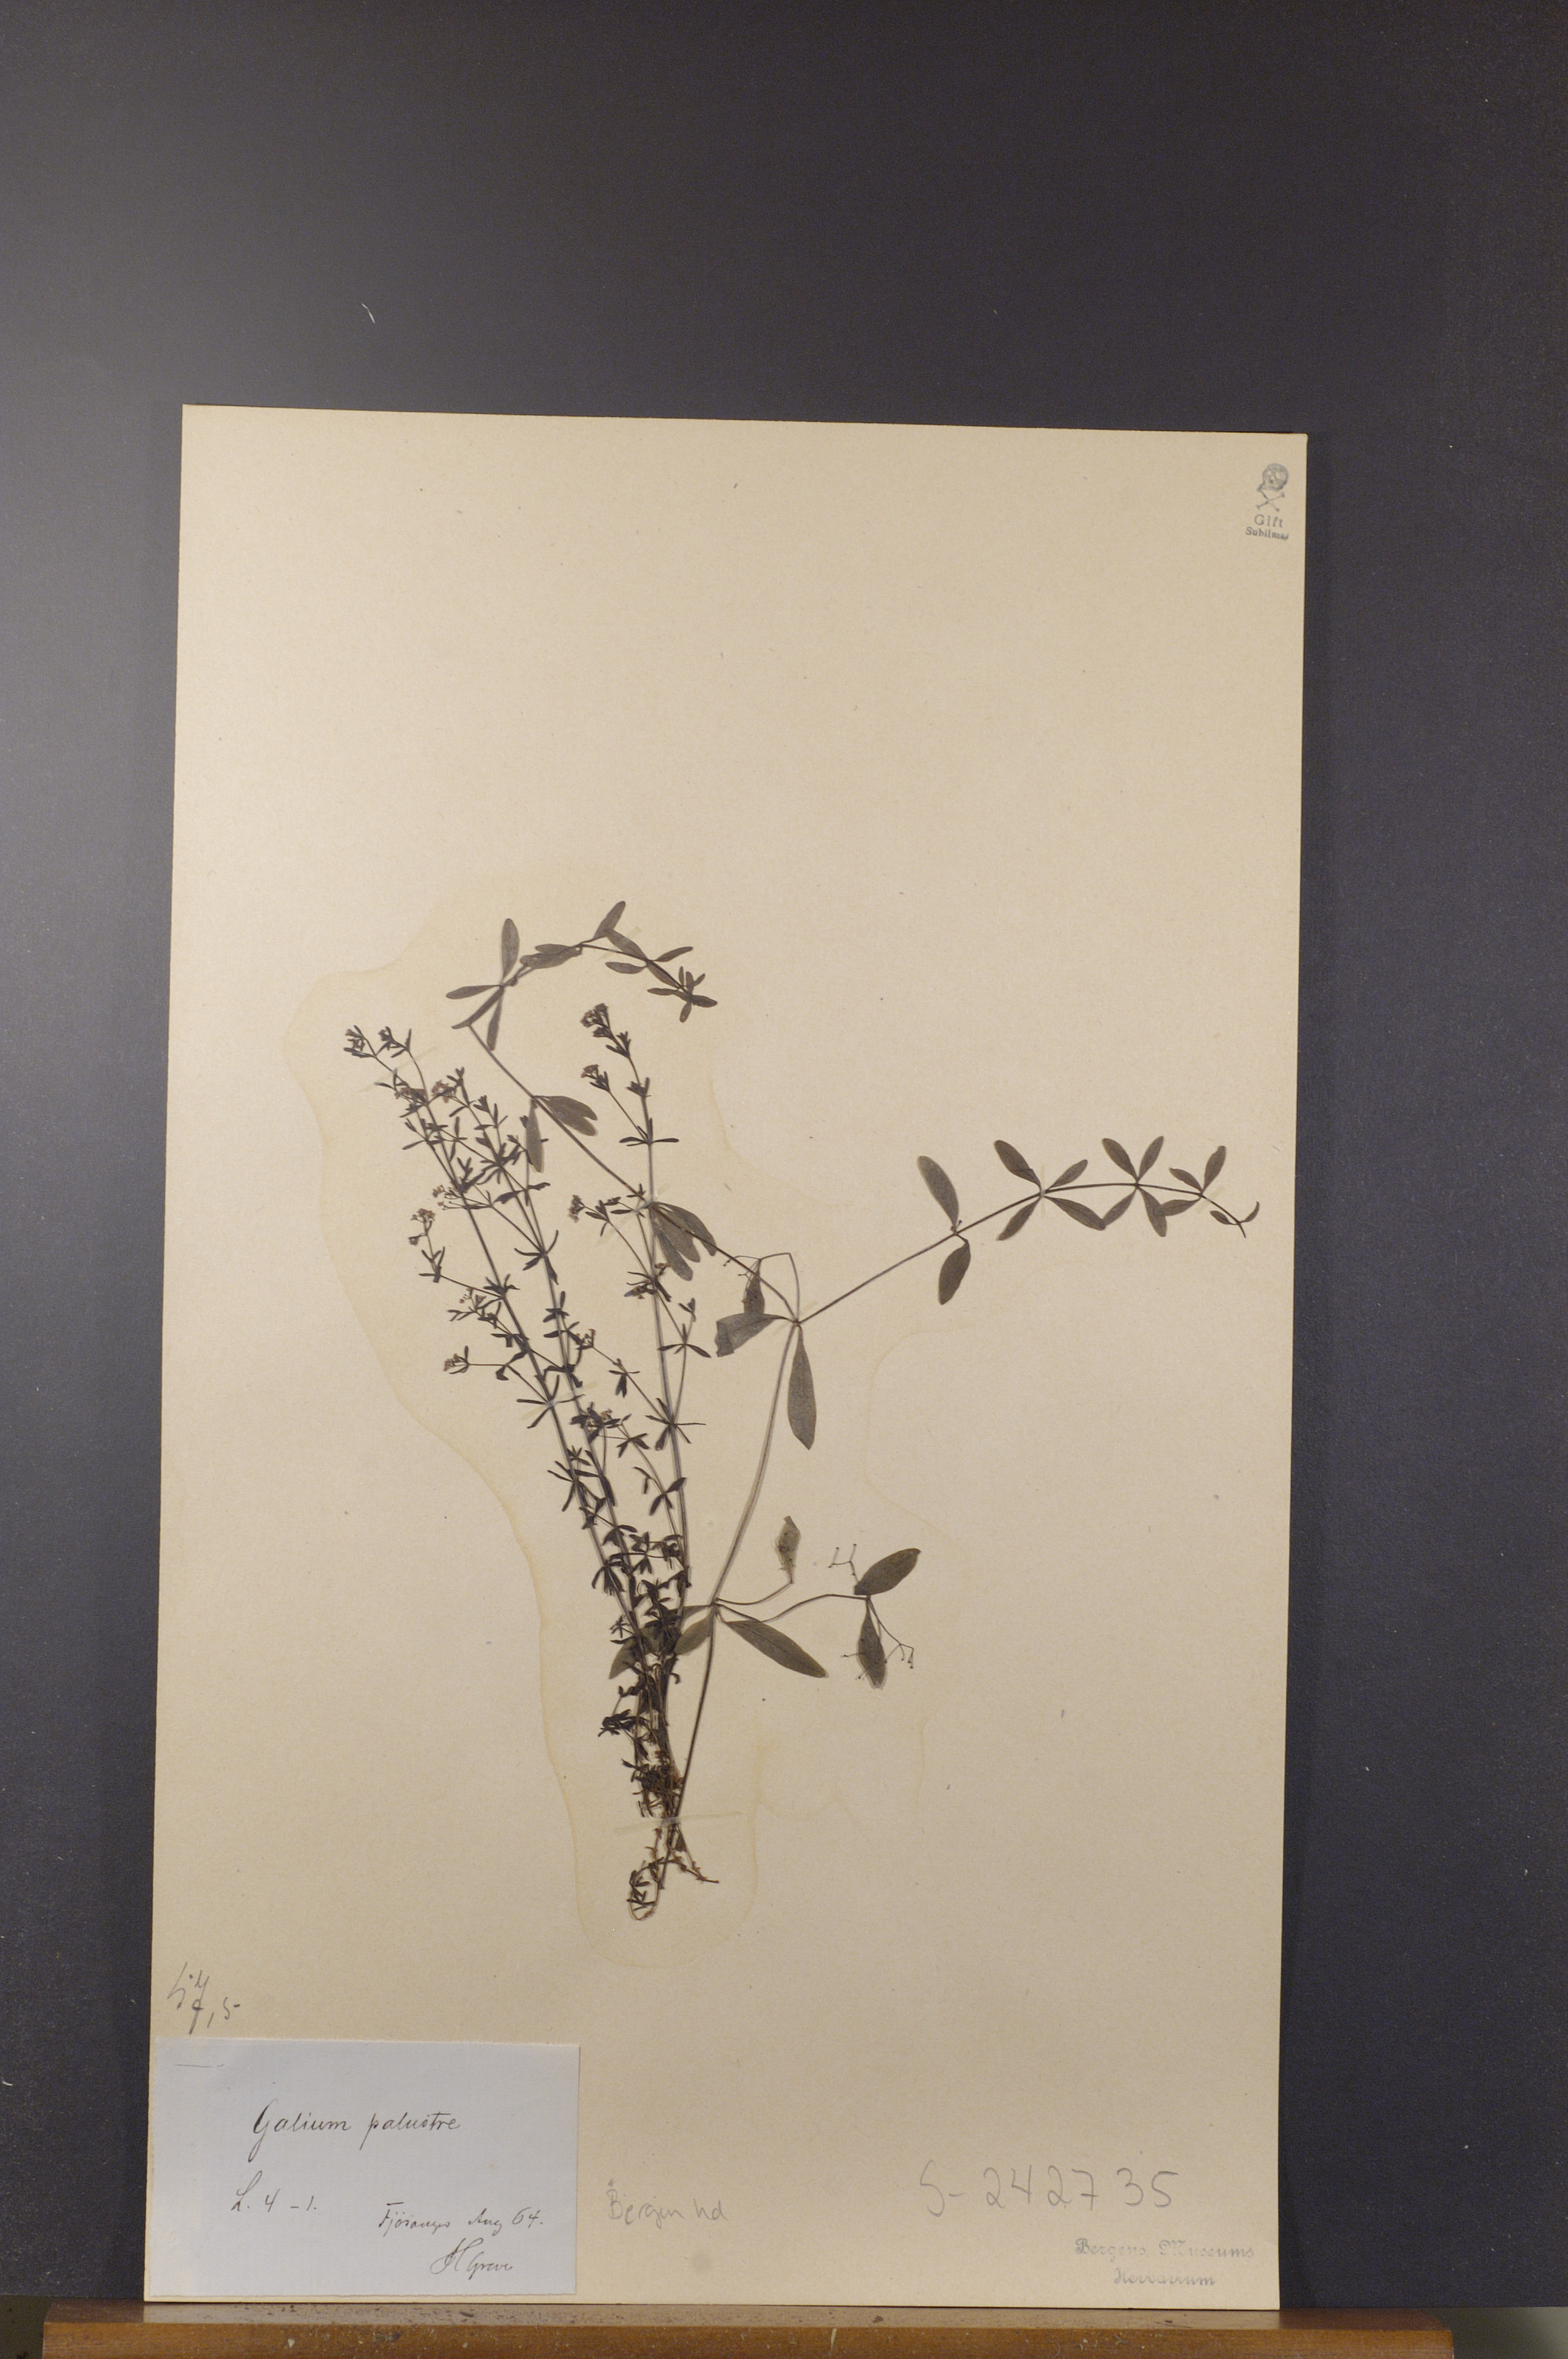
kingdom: Plantae
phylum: Tracheophyta
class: Magnoliopsida
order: Gentianales
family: Rubiaceae
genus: Galium
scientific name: Galium palustre
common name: Common marsh-bedstraw
